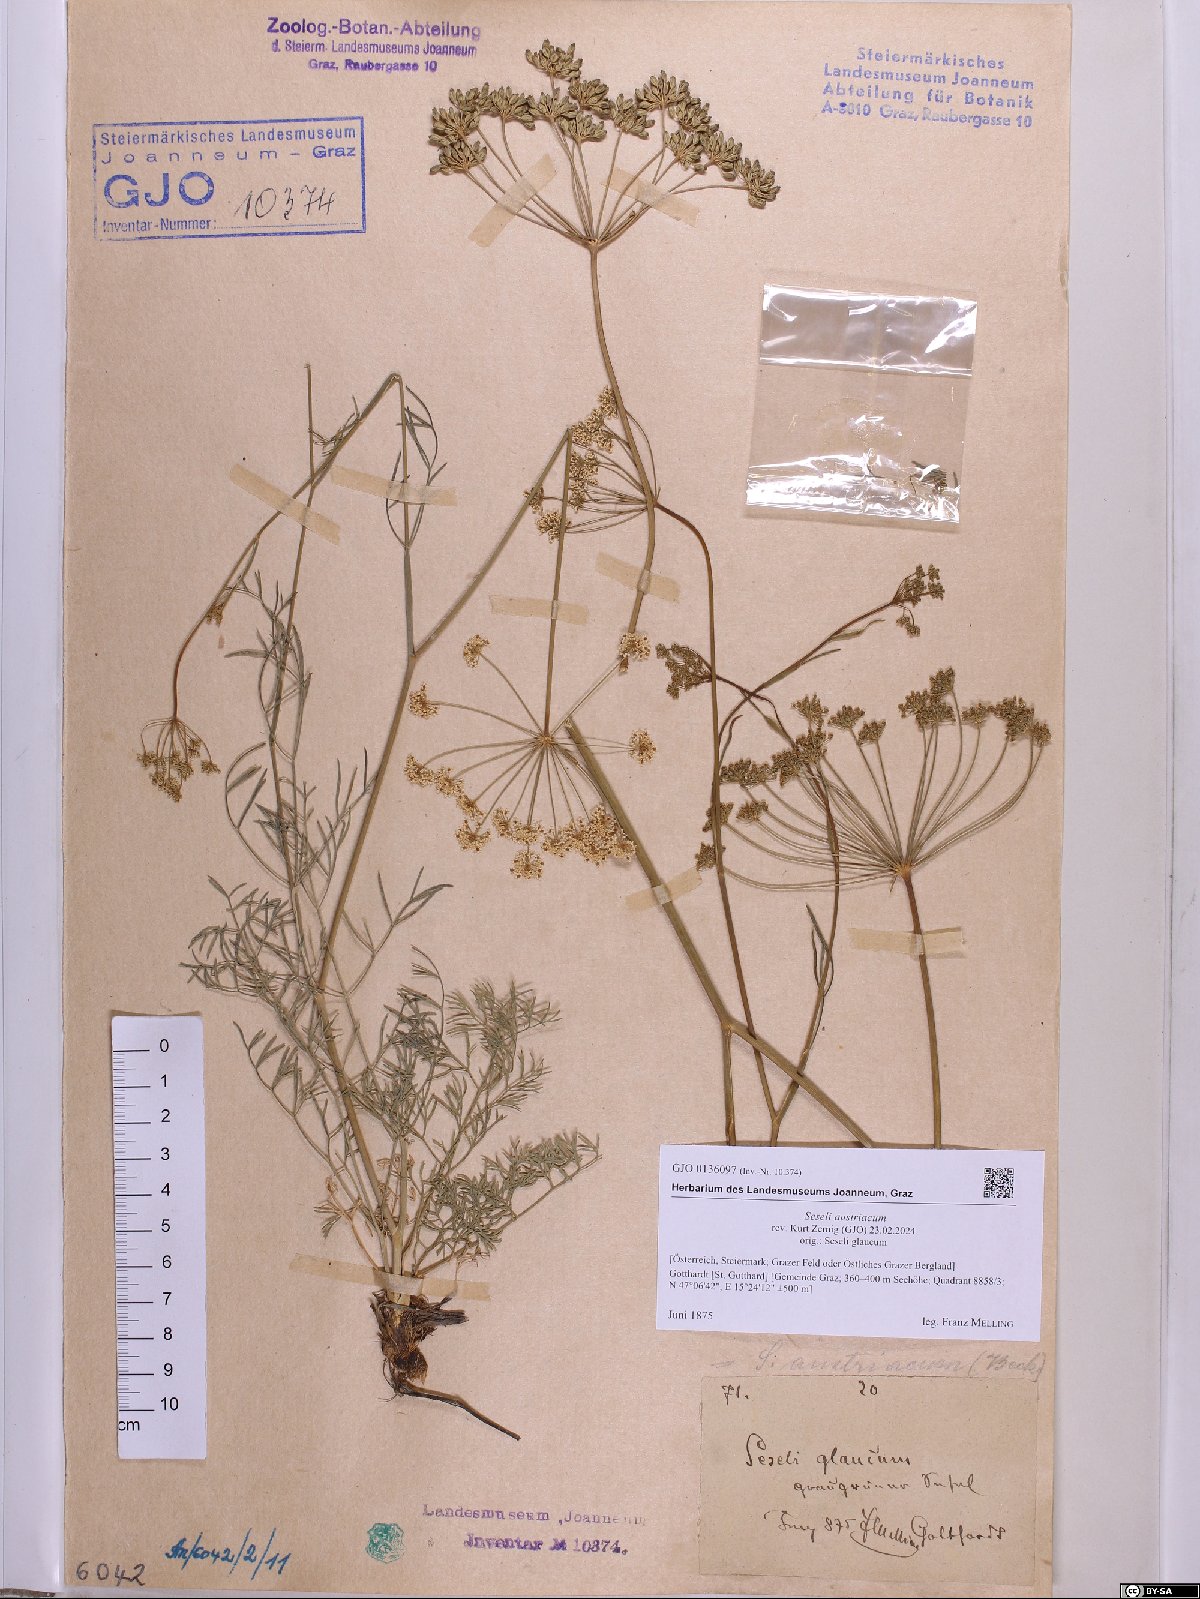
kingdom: Plantae
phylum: Tracheophyta
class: Magnoliopsida
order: Apiales
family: Apiaceae
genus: Seseli
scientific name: Seseli austriacum
